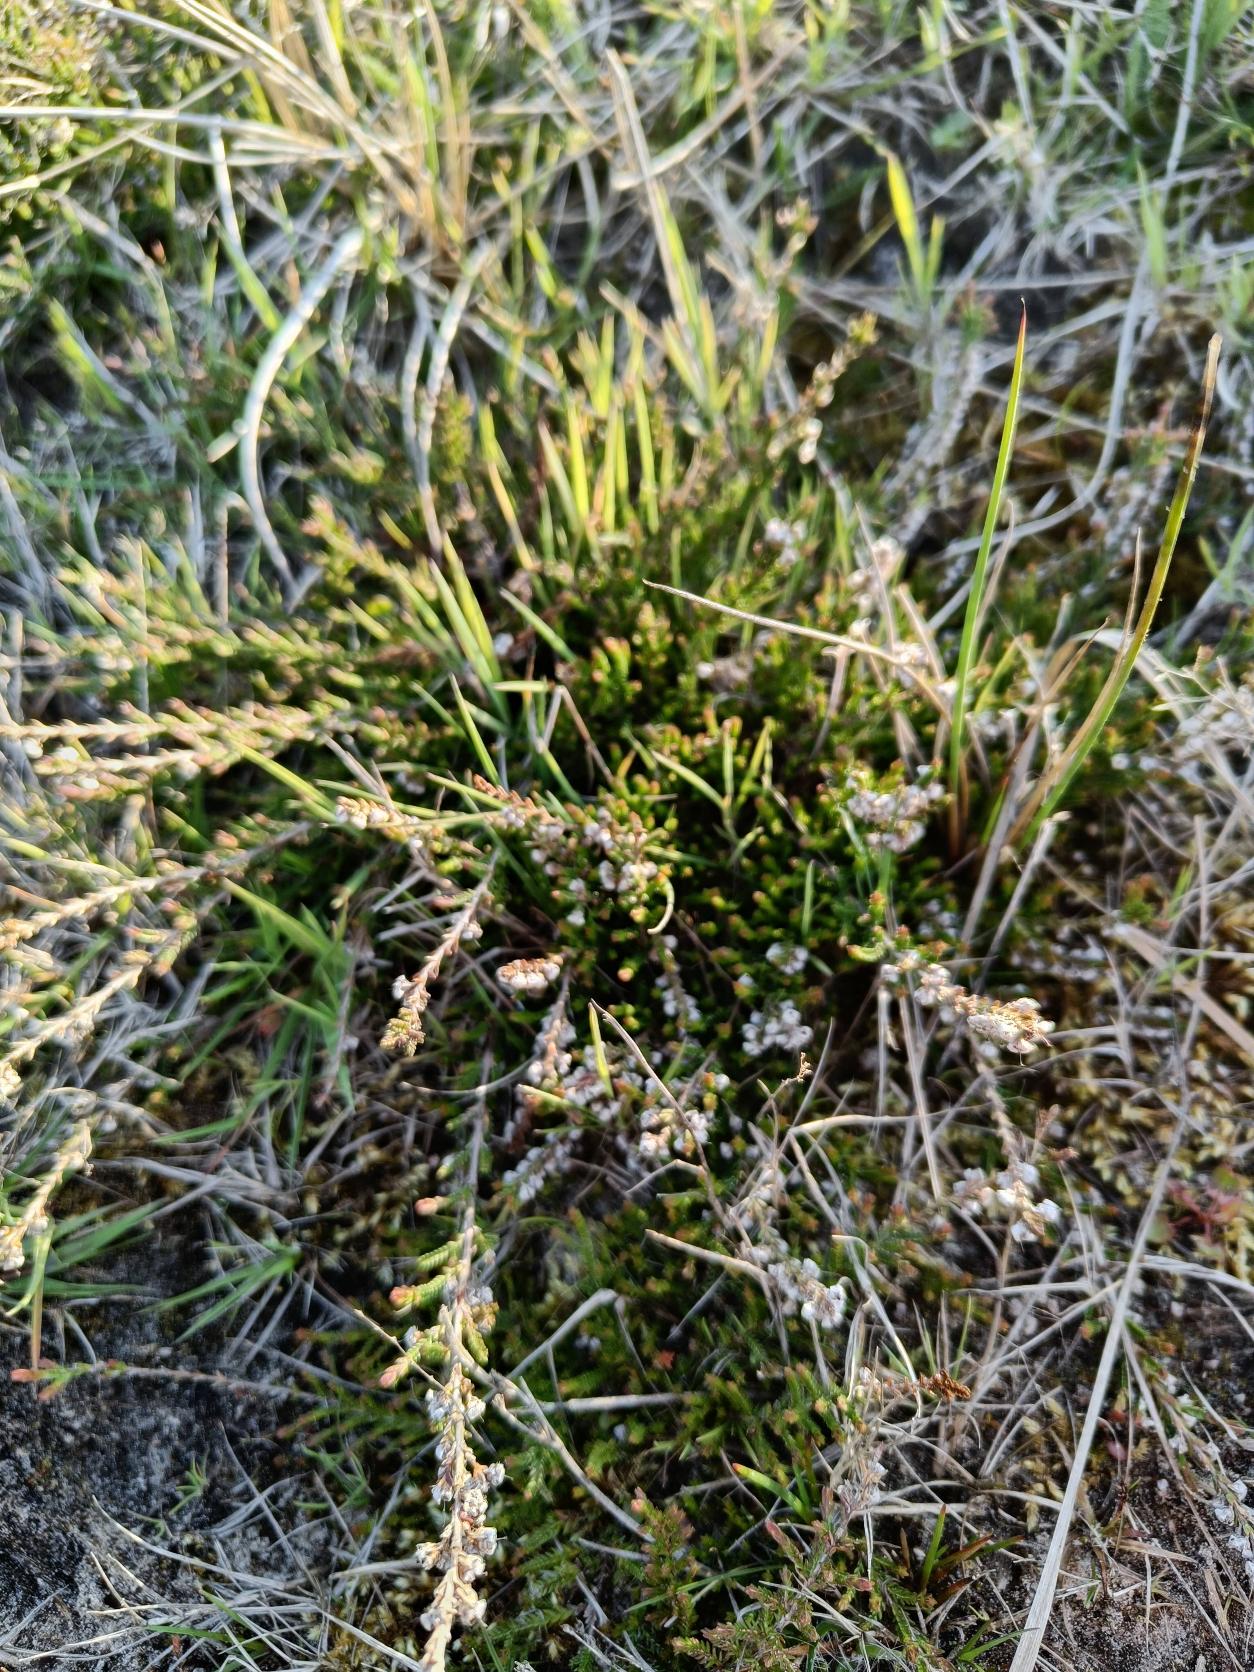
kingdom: Plantae
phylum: Tracheophyta
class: Magnoliopsida
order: Ericales
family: Ericaceae
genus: Calluna
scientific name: Calluna vulgaris
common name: Hedelyng
